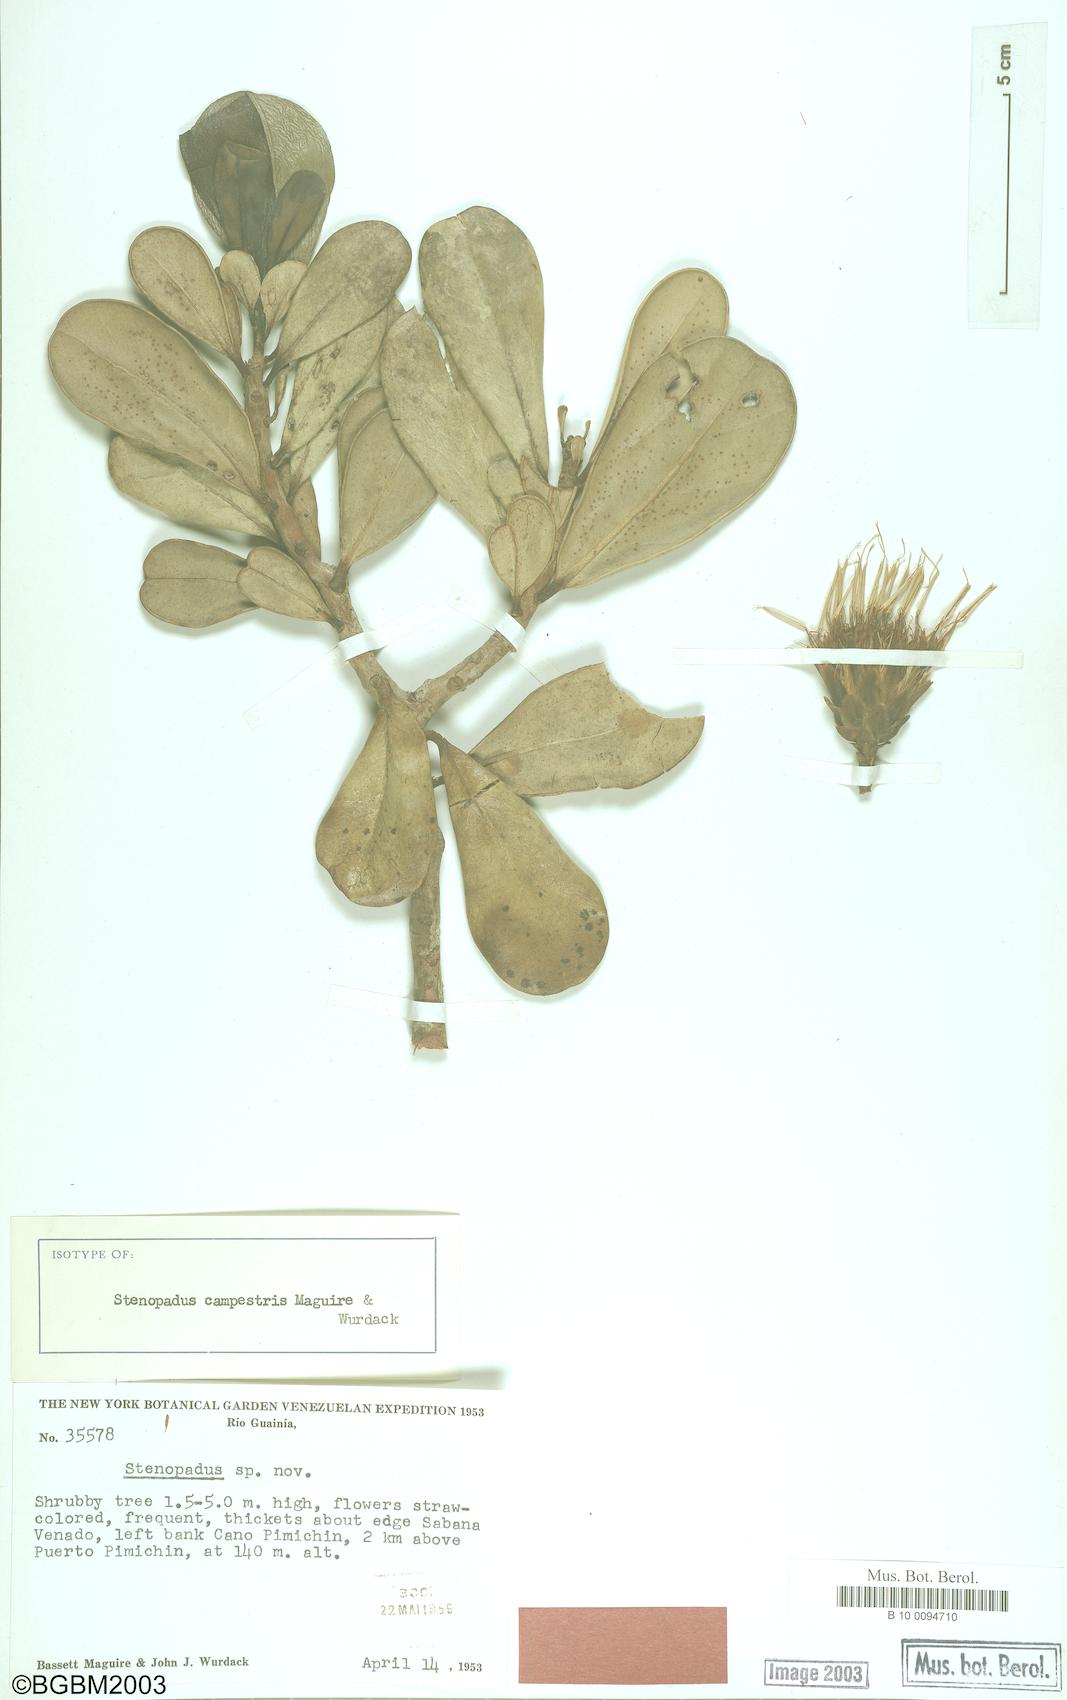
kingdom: Plantae
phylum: Tracheophyta
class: Magnoliopsida
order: Asterales
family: Asteraceae
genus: Stenopadus
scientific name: Stenopadus campestris
